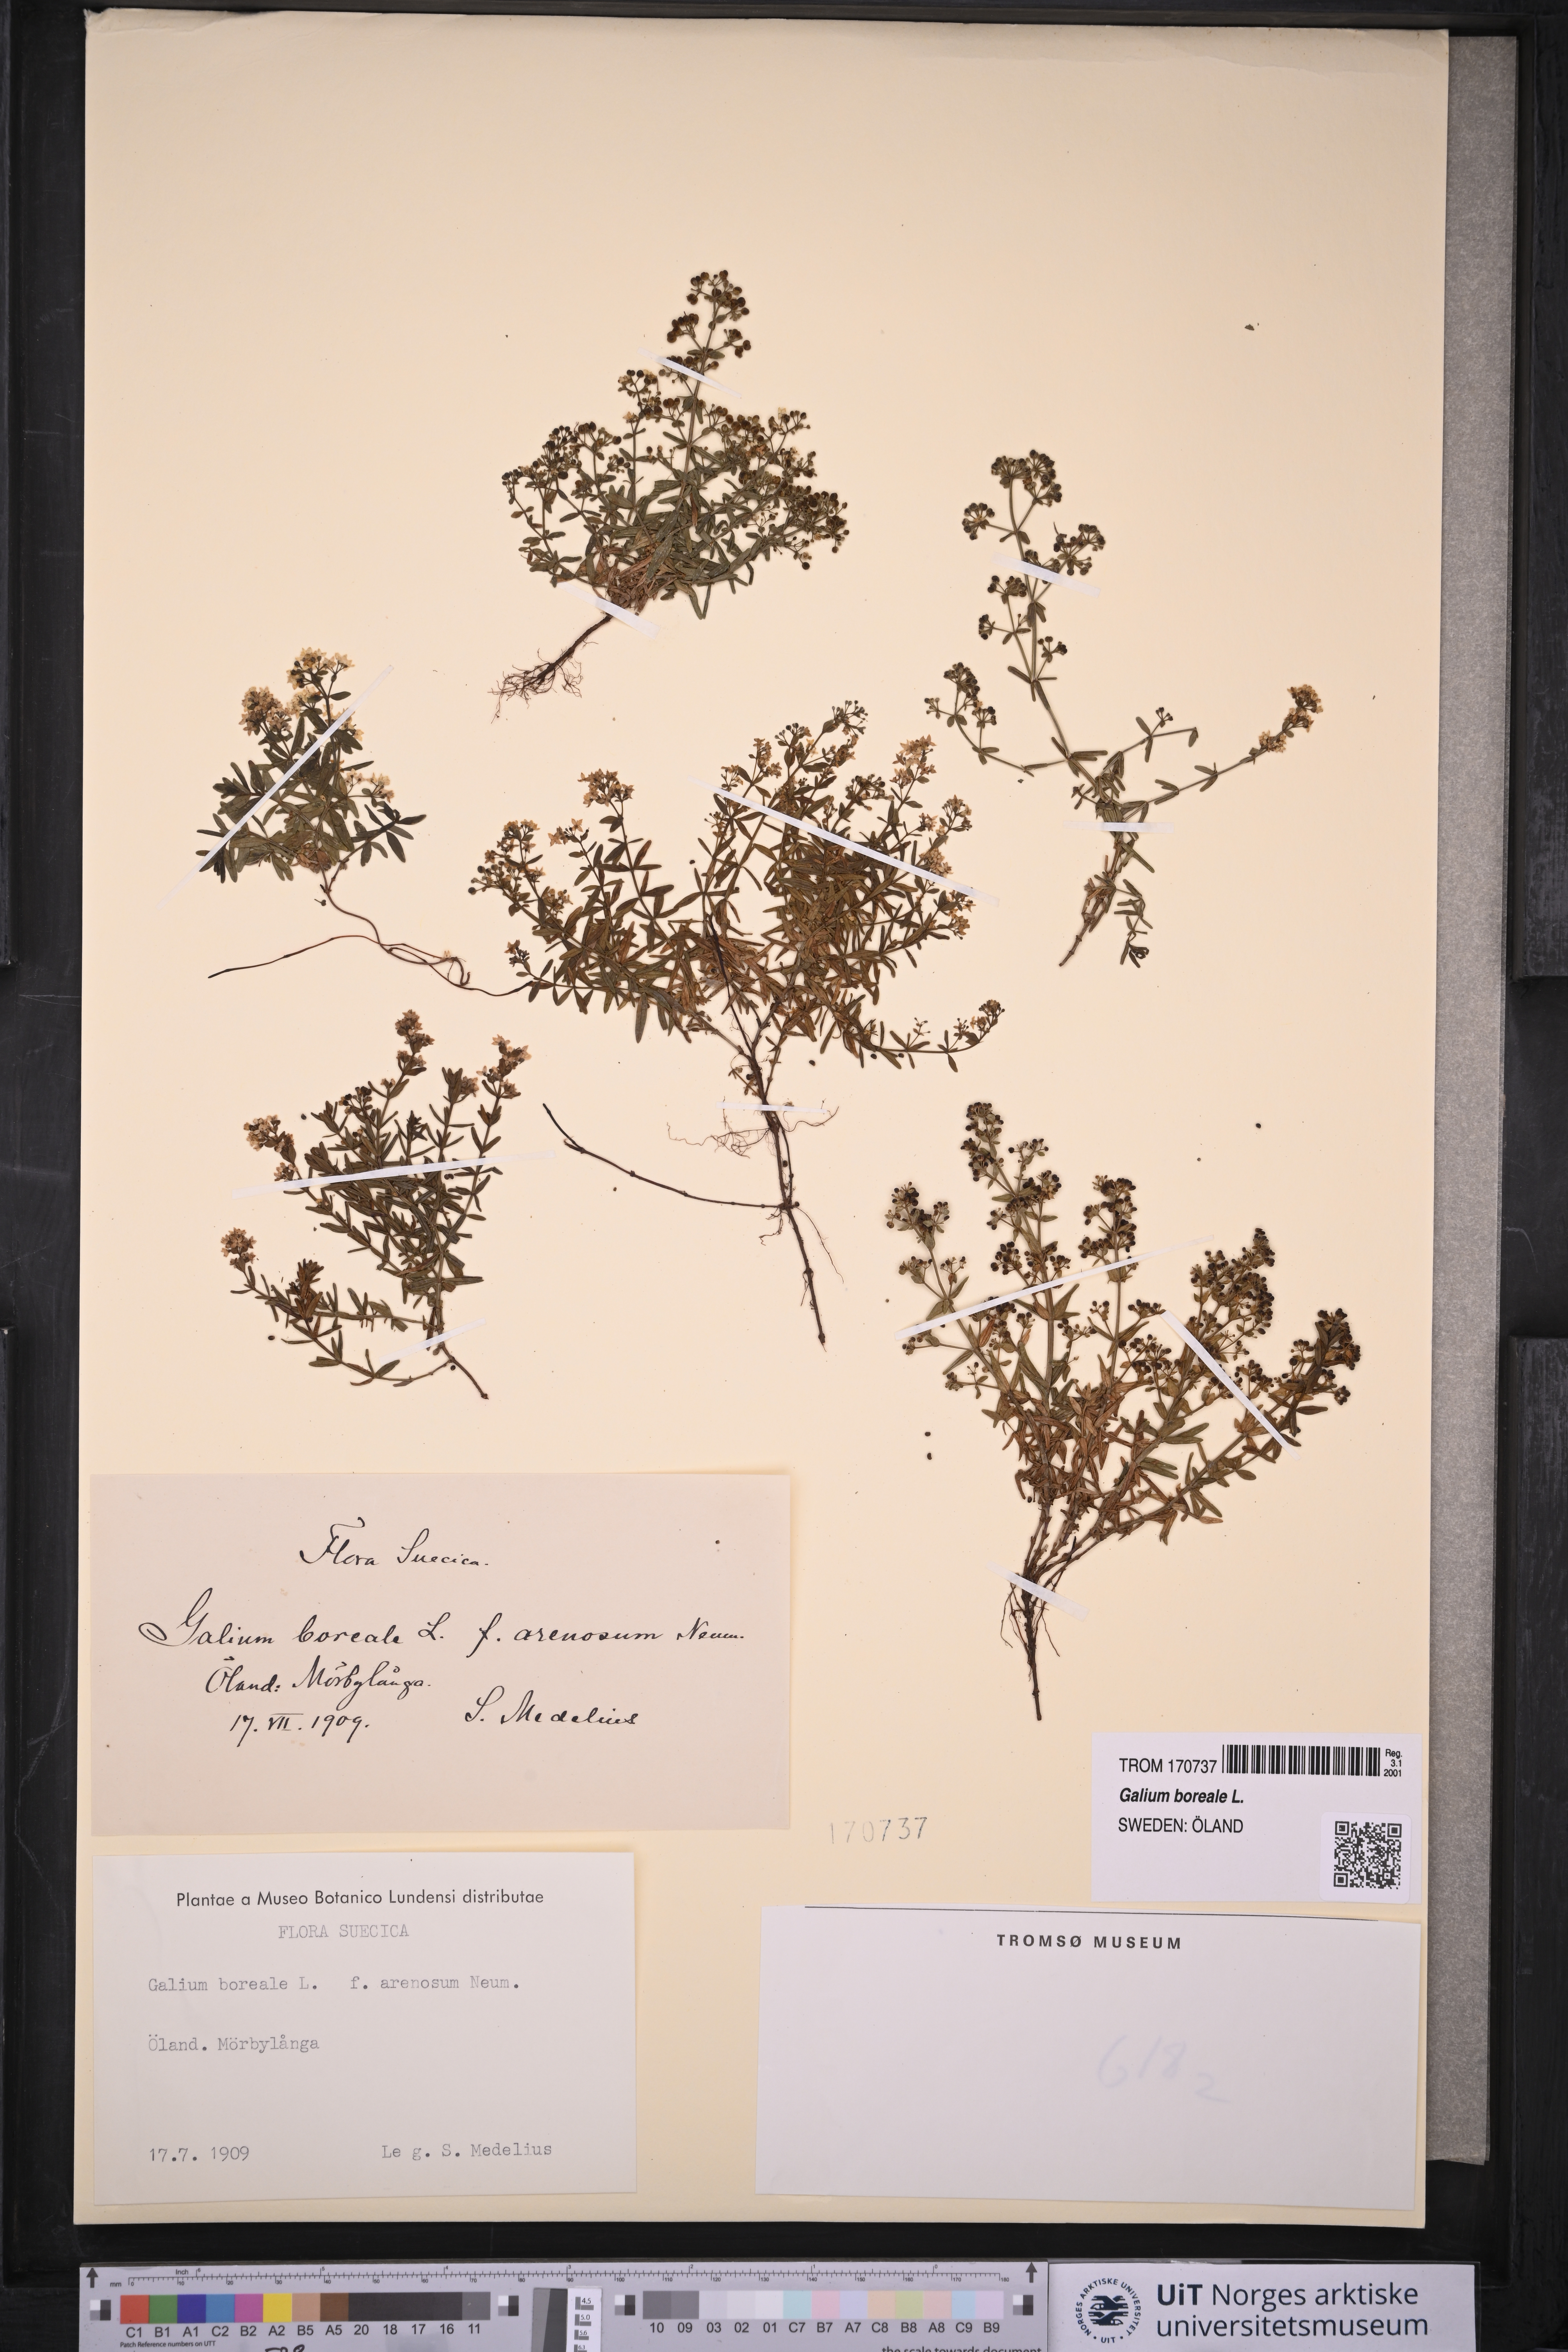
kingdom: Plantae
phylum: Tracheophyta
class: Magnoliopsida
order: Gentianales
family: Rubiaceae
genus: Galium
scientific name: Galium boreale
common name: Northern bedstraw
